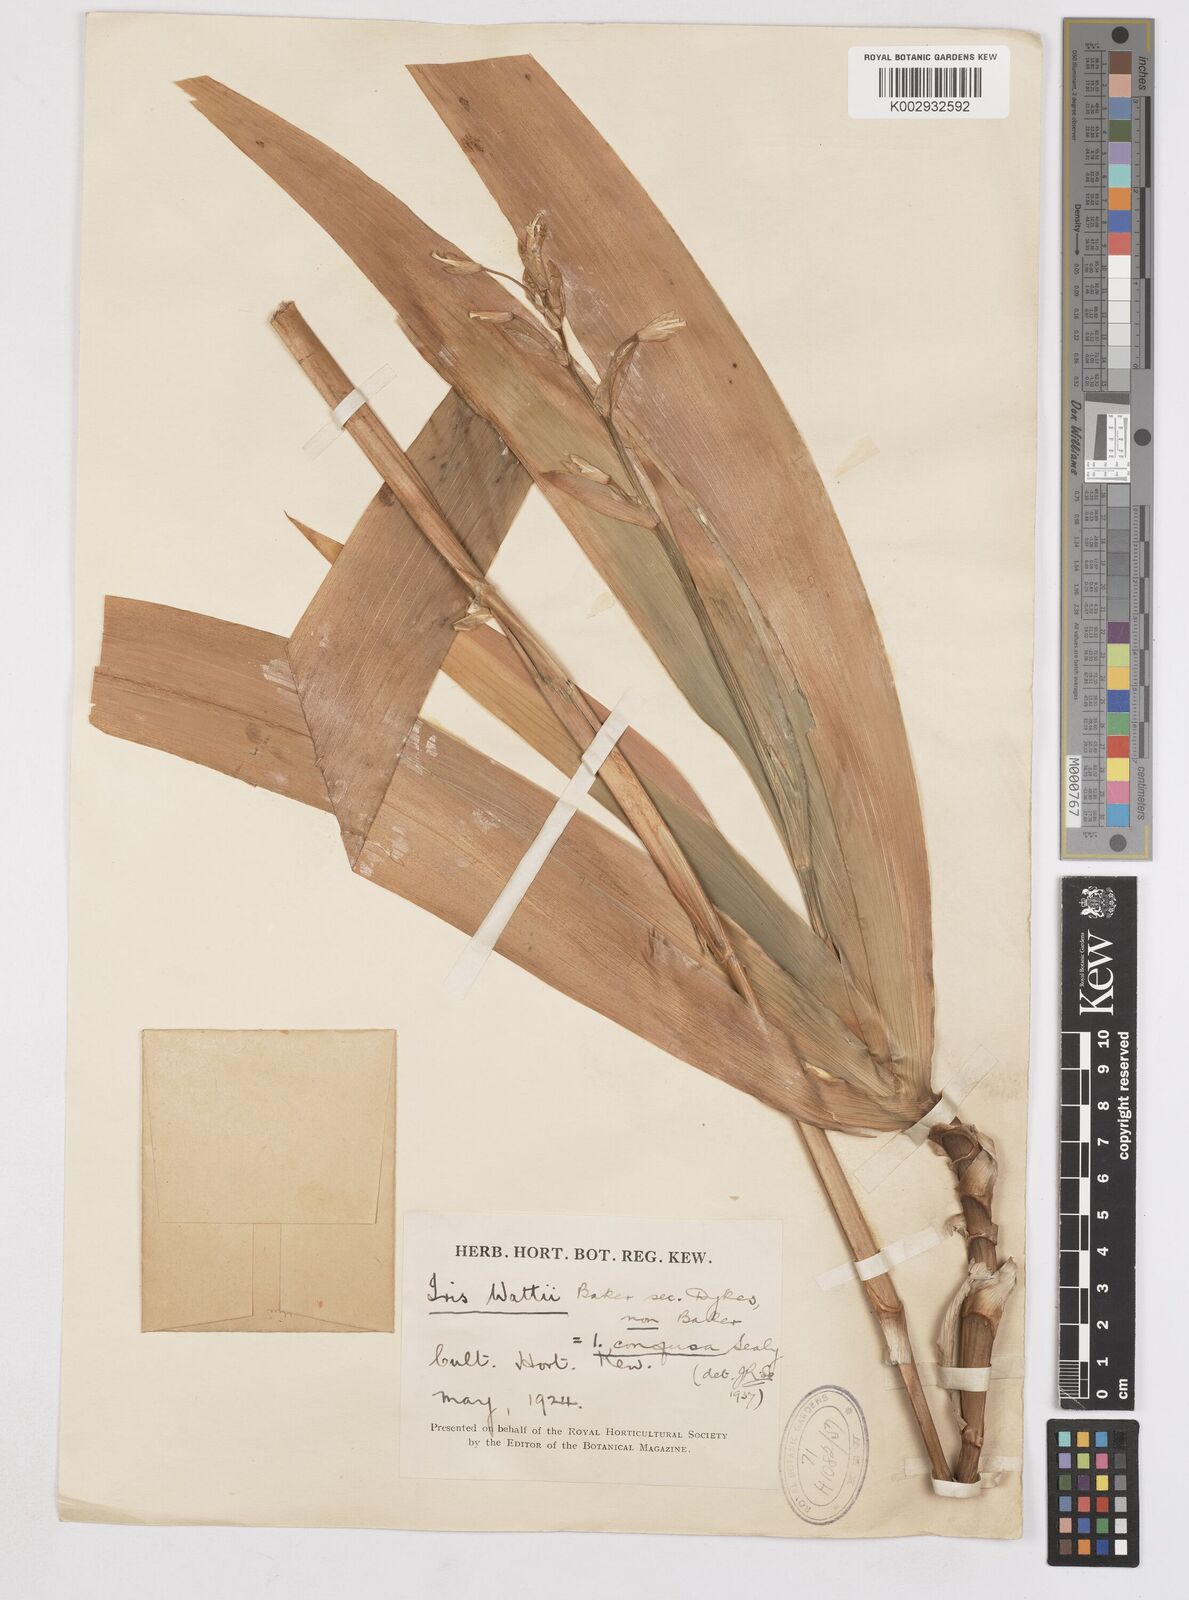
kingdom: Plantae
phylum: Tracheophyta
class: Liliopsida
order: Asparagales
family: Iridaceae
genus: Iris
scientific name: Iris wattii
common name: Fan-shape iris
